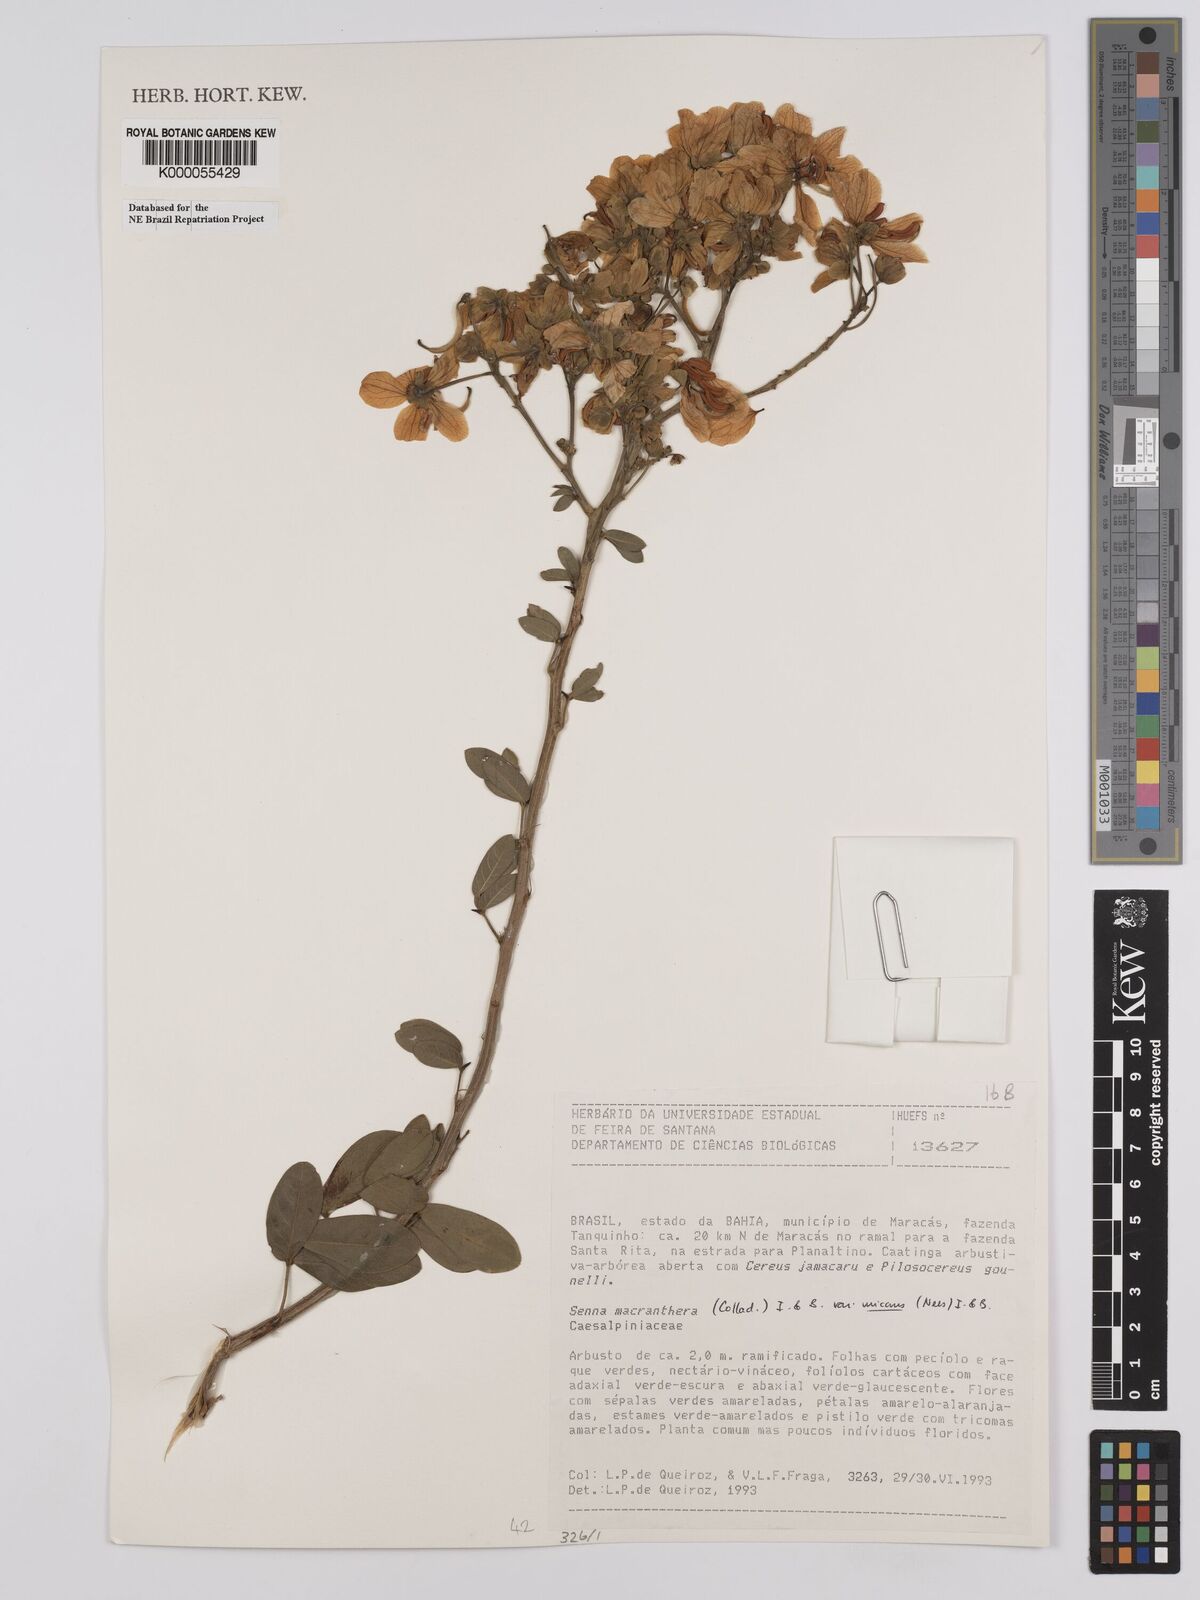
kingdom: Plantae
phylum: Tracheophyta
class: Magnoliopsida
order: Fabales
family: Fabaceae
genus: Senna
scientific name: Senna macranthera
